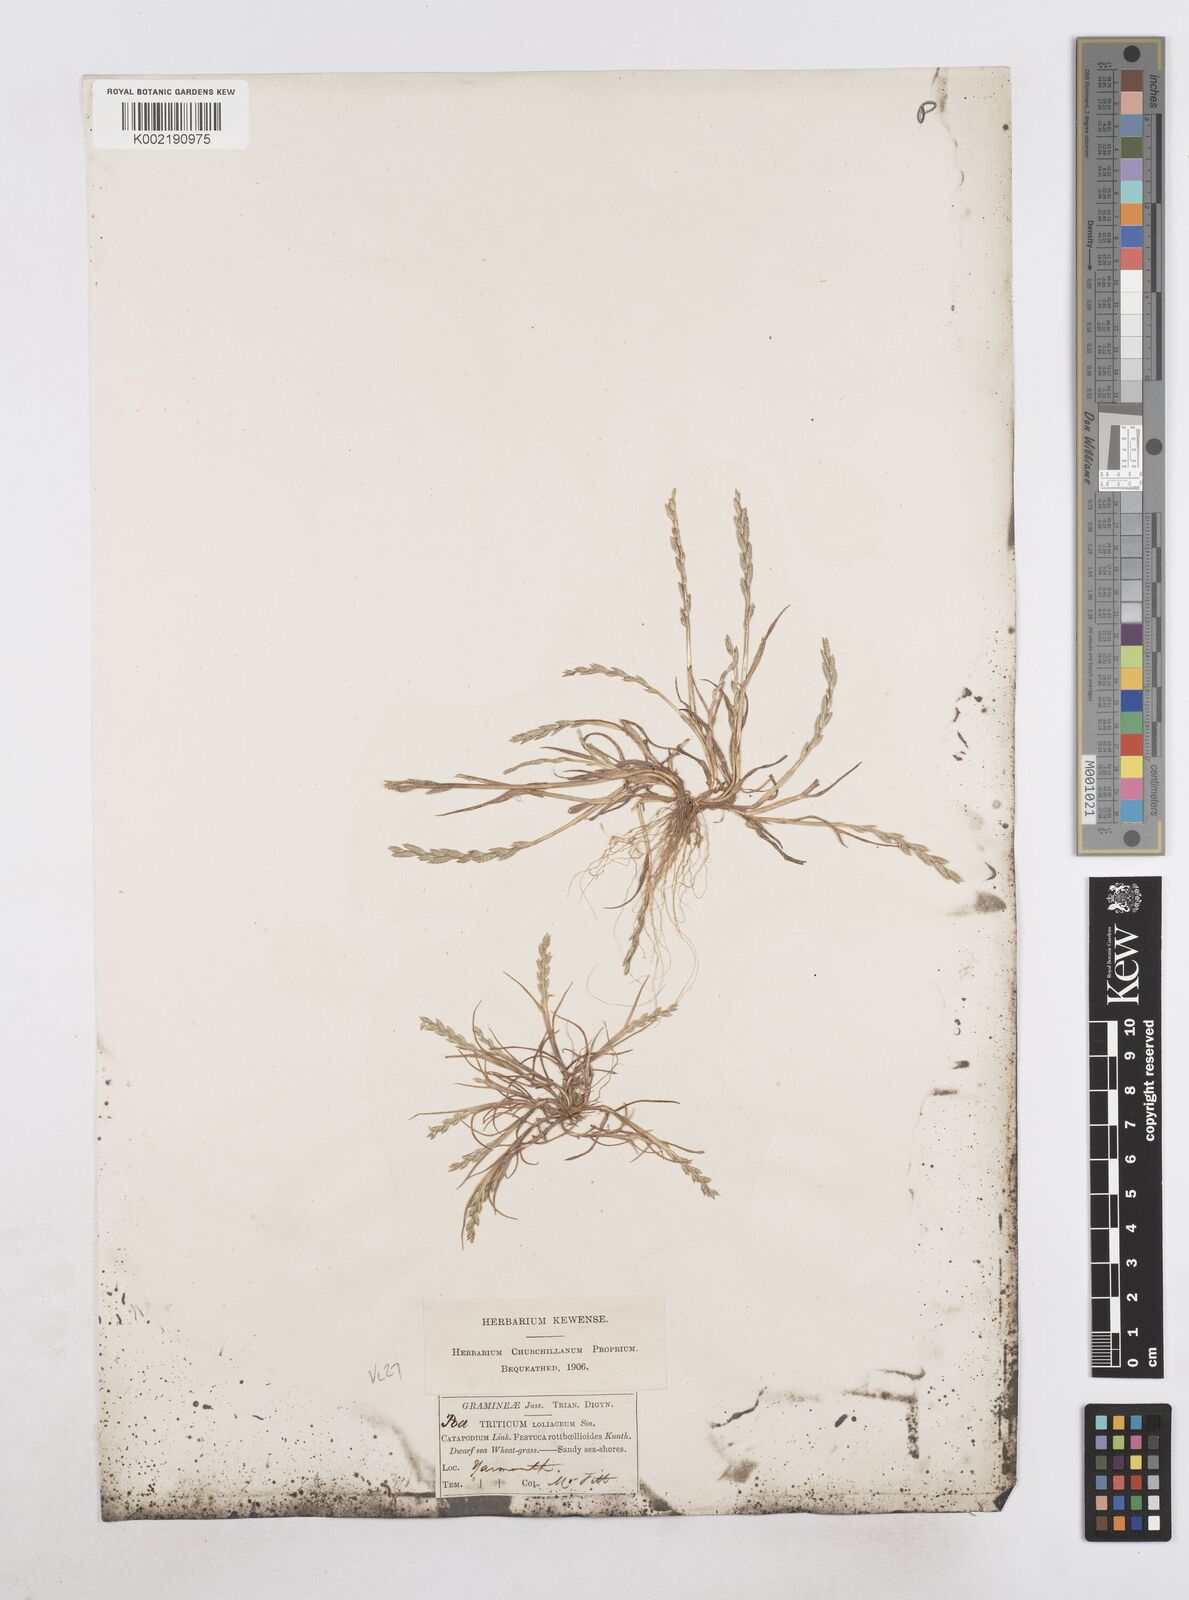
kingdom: Plantae
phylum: Tracheophyta
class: Liliopsida
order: Poales
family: Poaceae
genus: Catapodium
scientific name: Catapodium marinum
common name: Sea fern-grass
